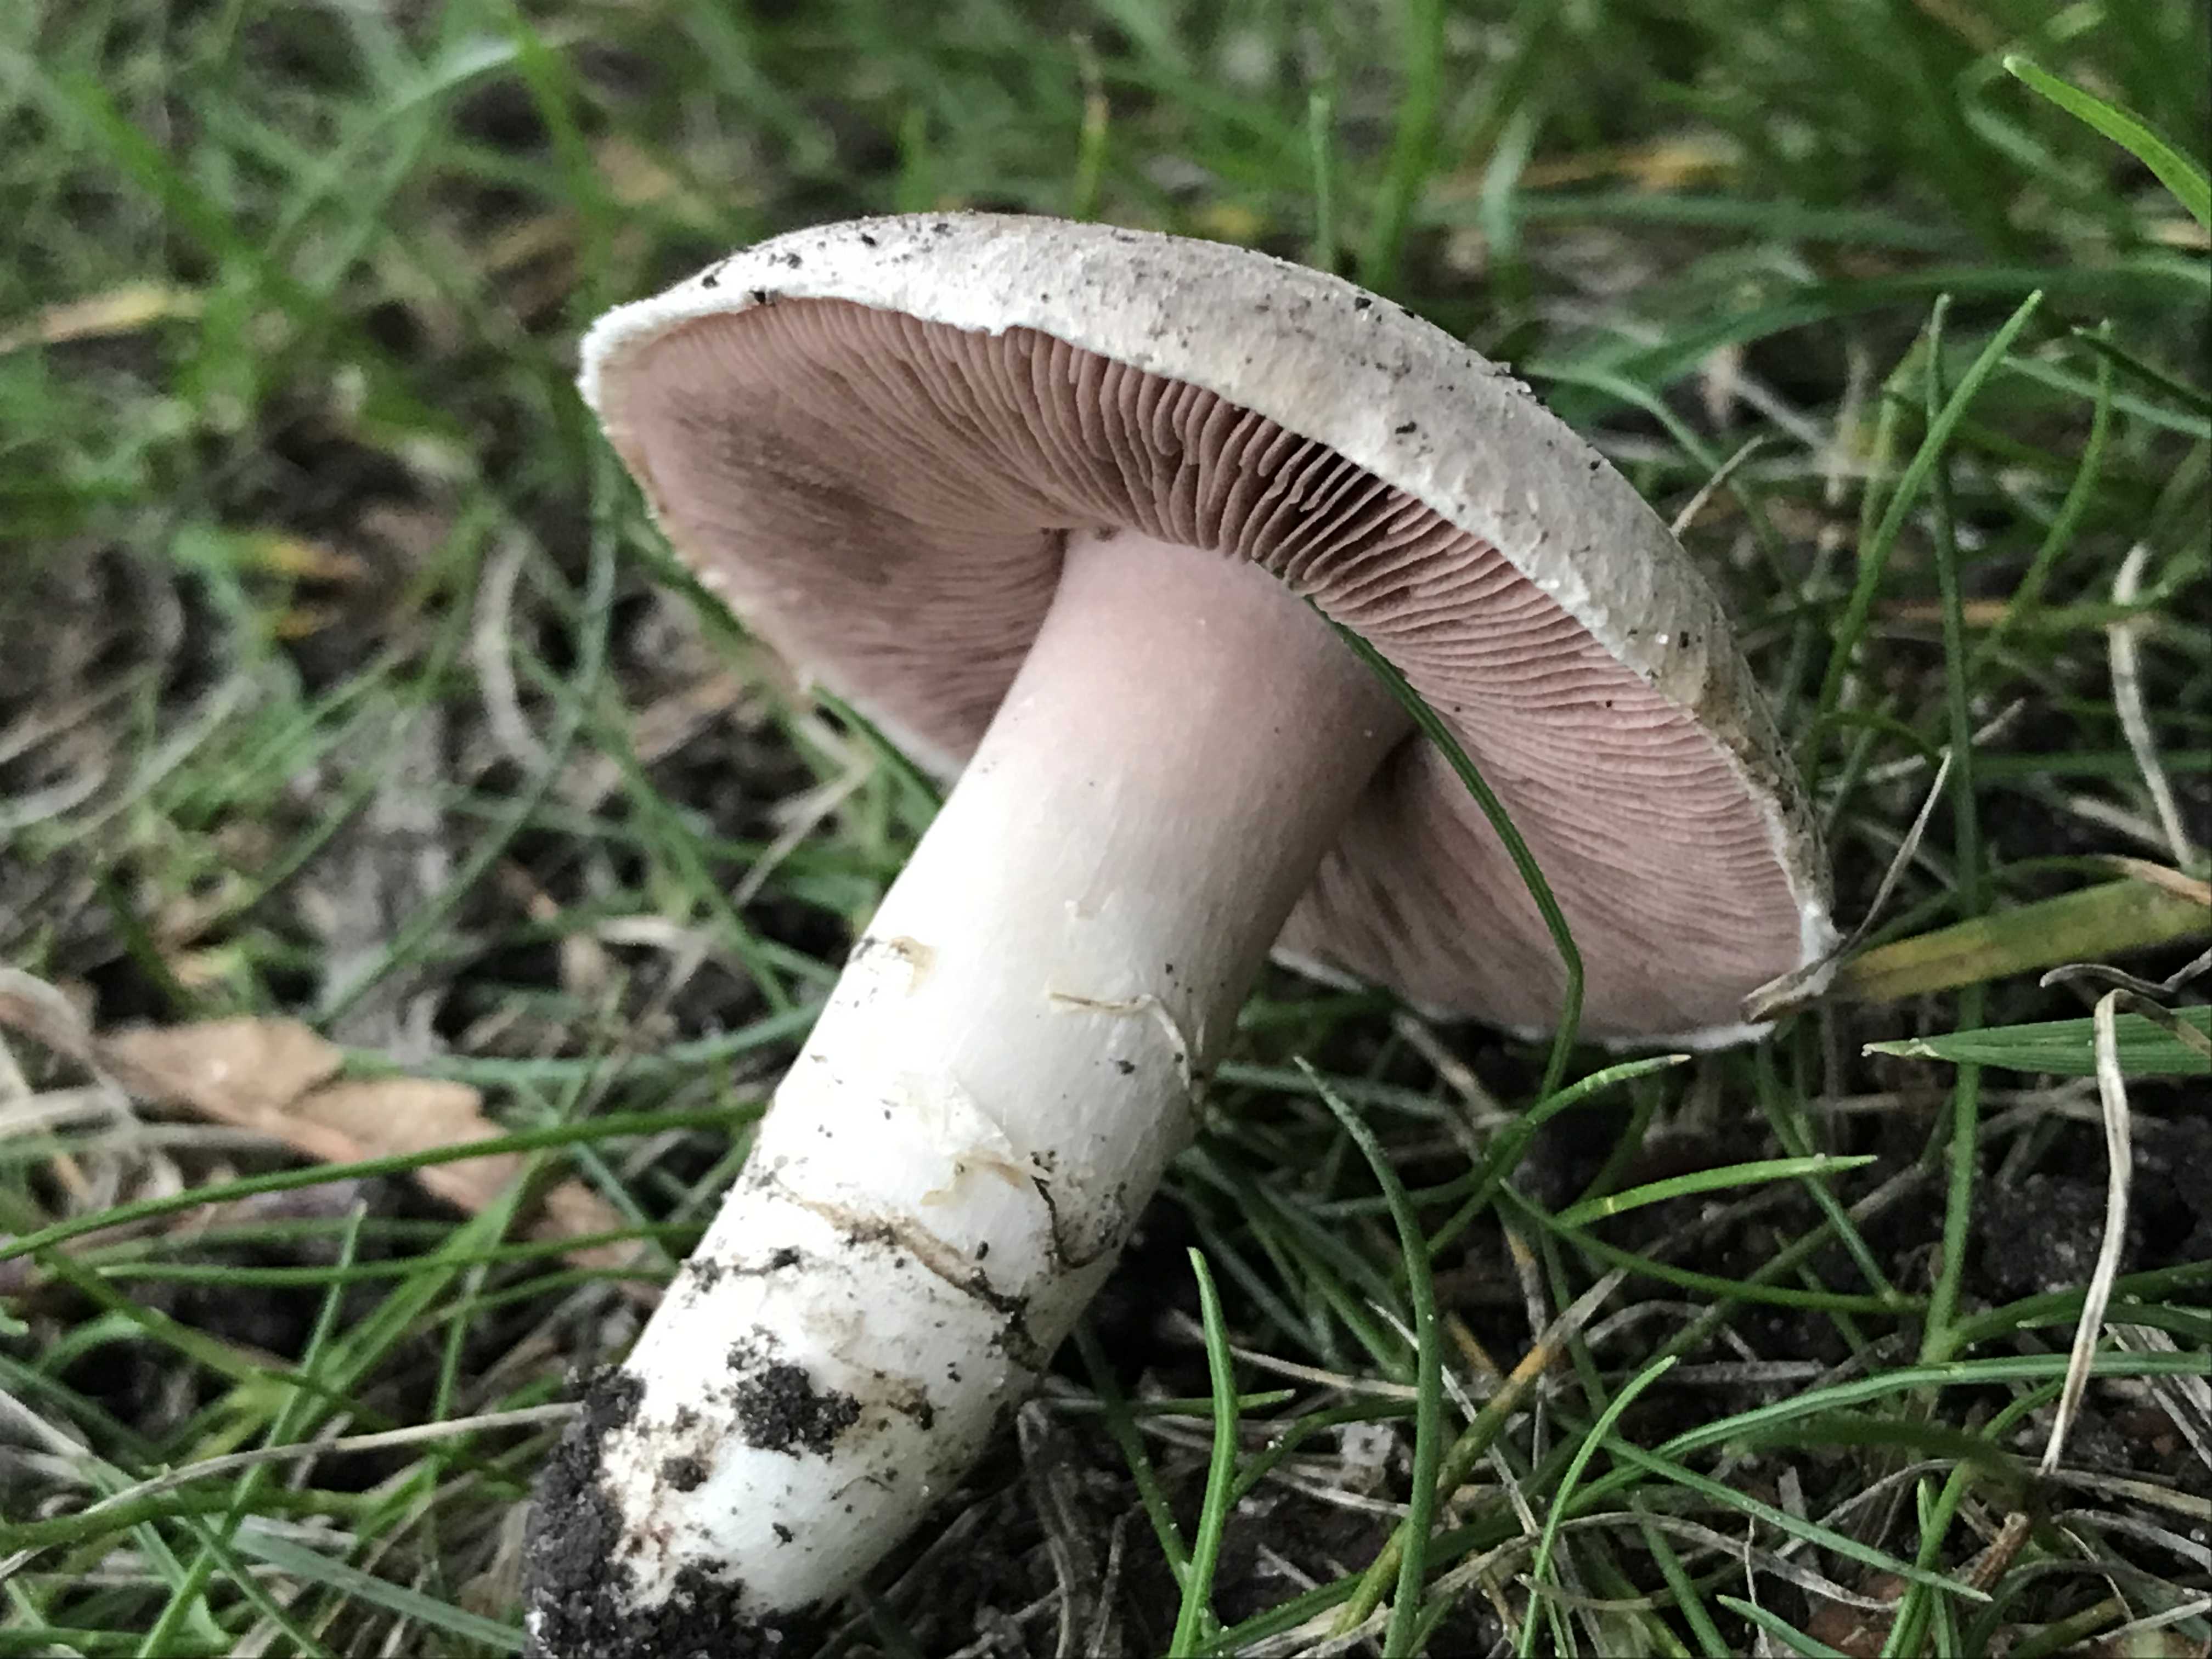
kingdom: Fungi
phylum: Basidiomycota
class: Agaricomycetes
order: Agaricales
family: Agaricaceae
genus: Agaricus
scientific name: Agaricus campestris
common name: mark-champignon
